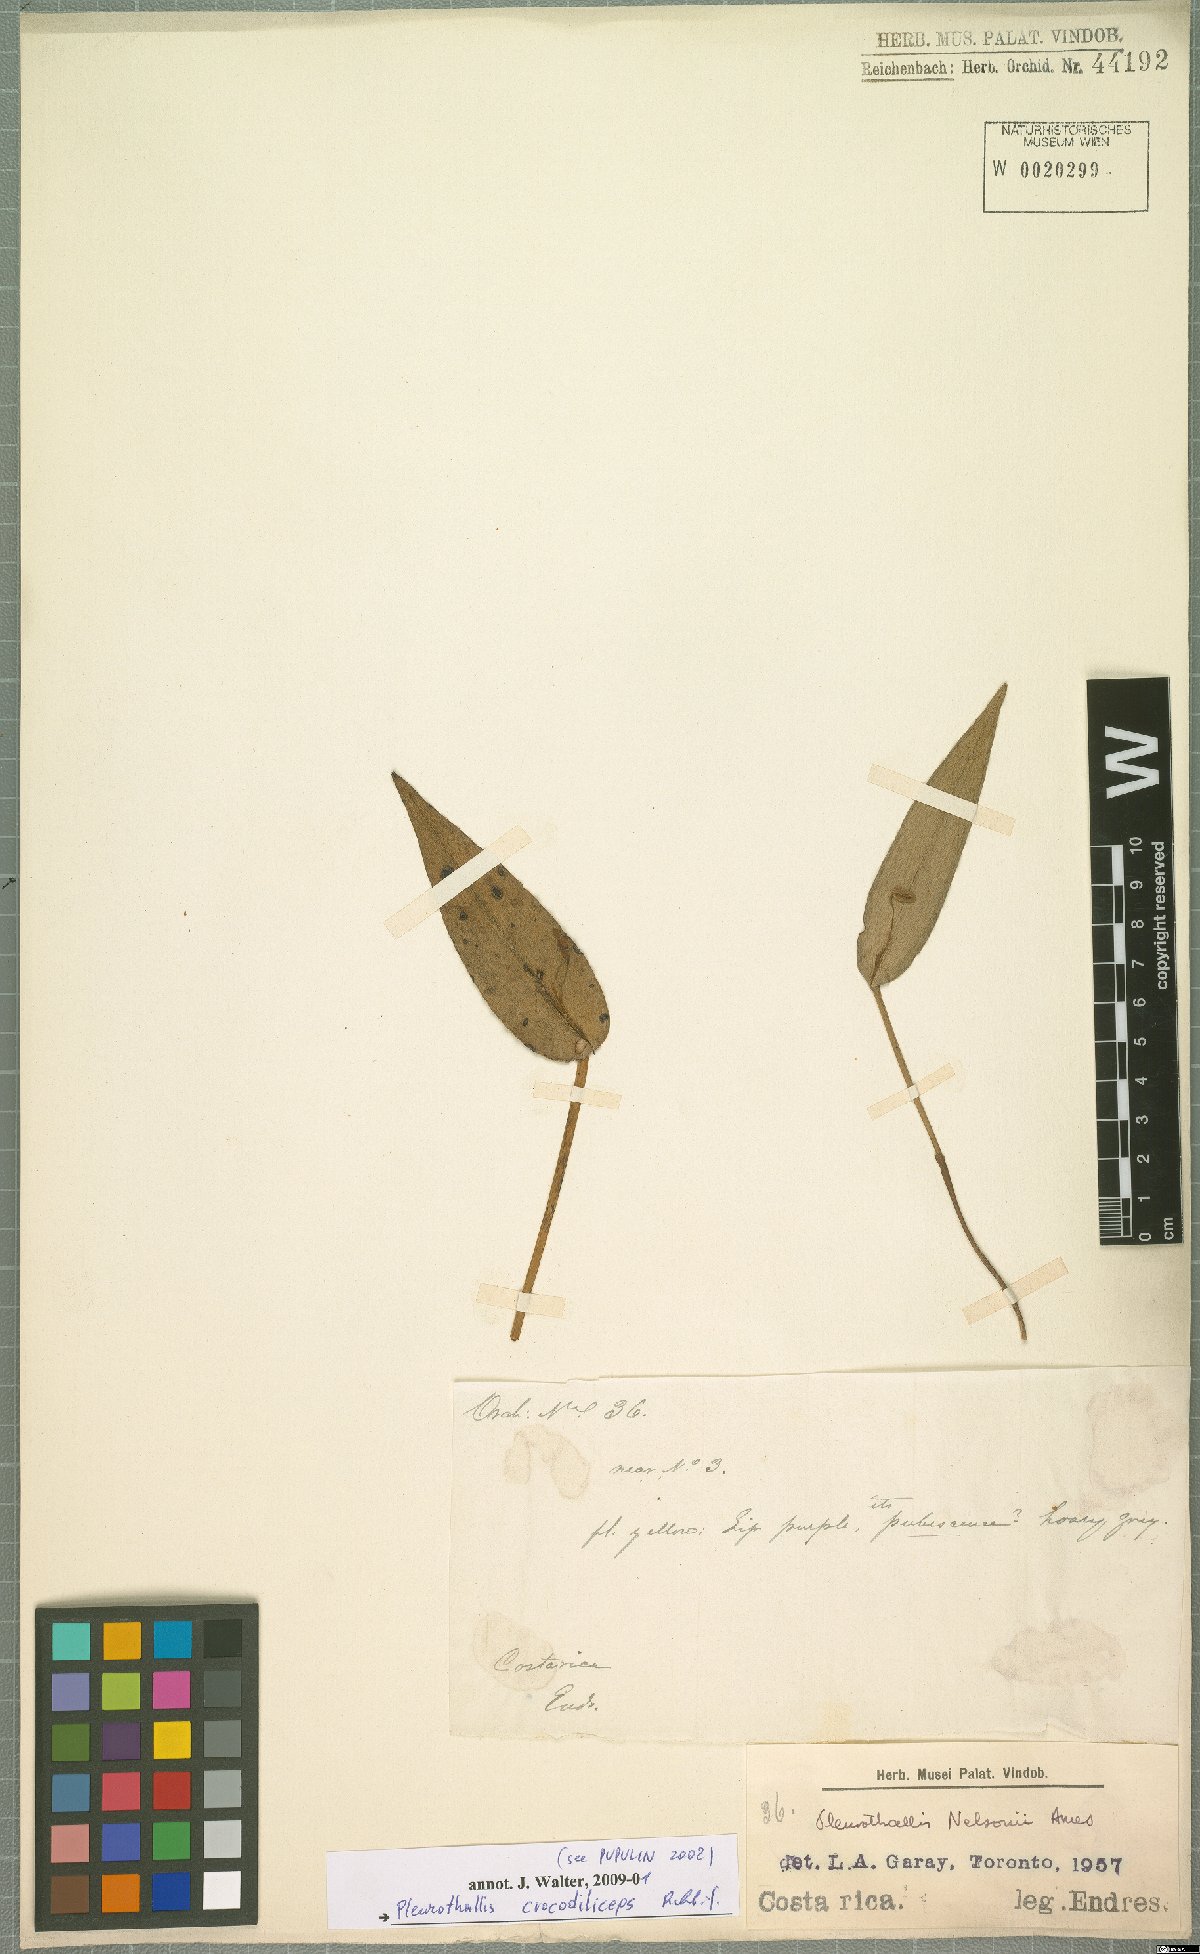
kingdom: Plantae
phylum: Tracheophyta
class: Liliopsida
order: Asparagales
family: Orchidaceae
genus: Pleurothallis
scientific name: Pleurothallis crocodiliceps
